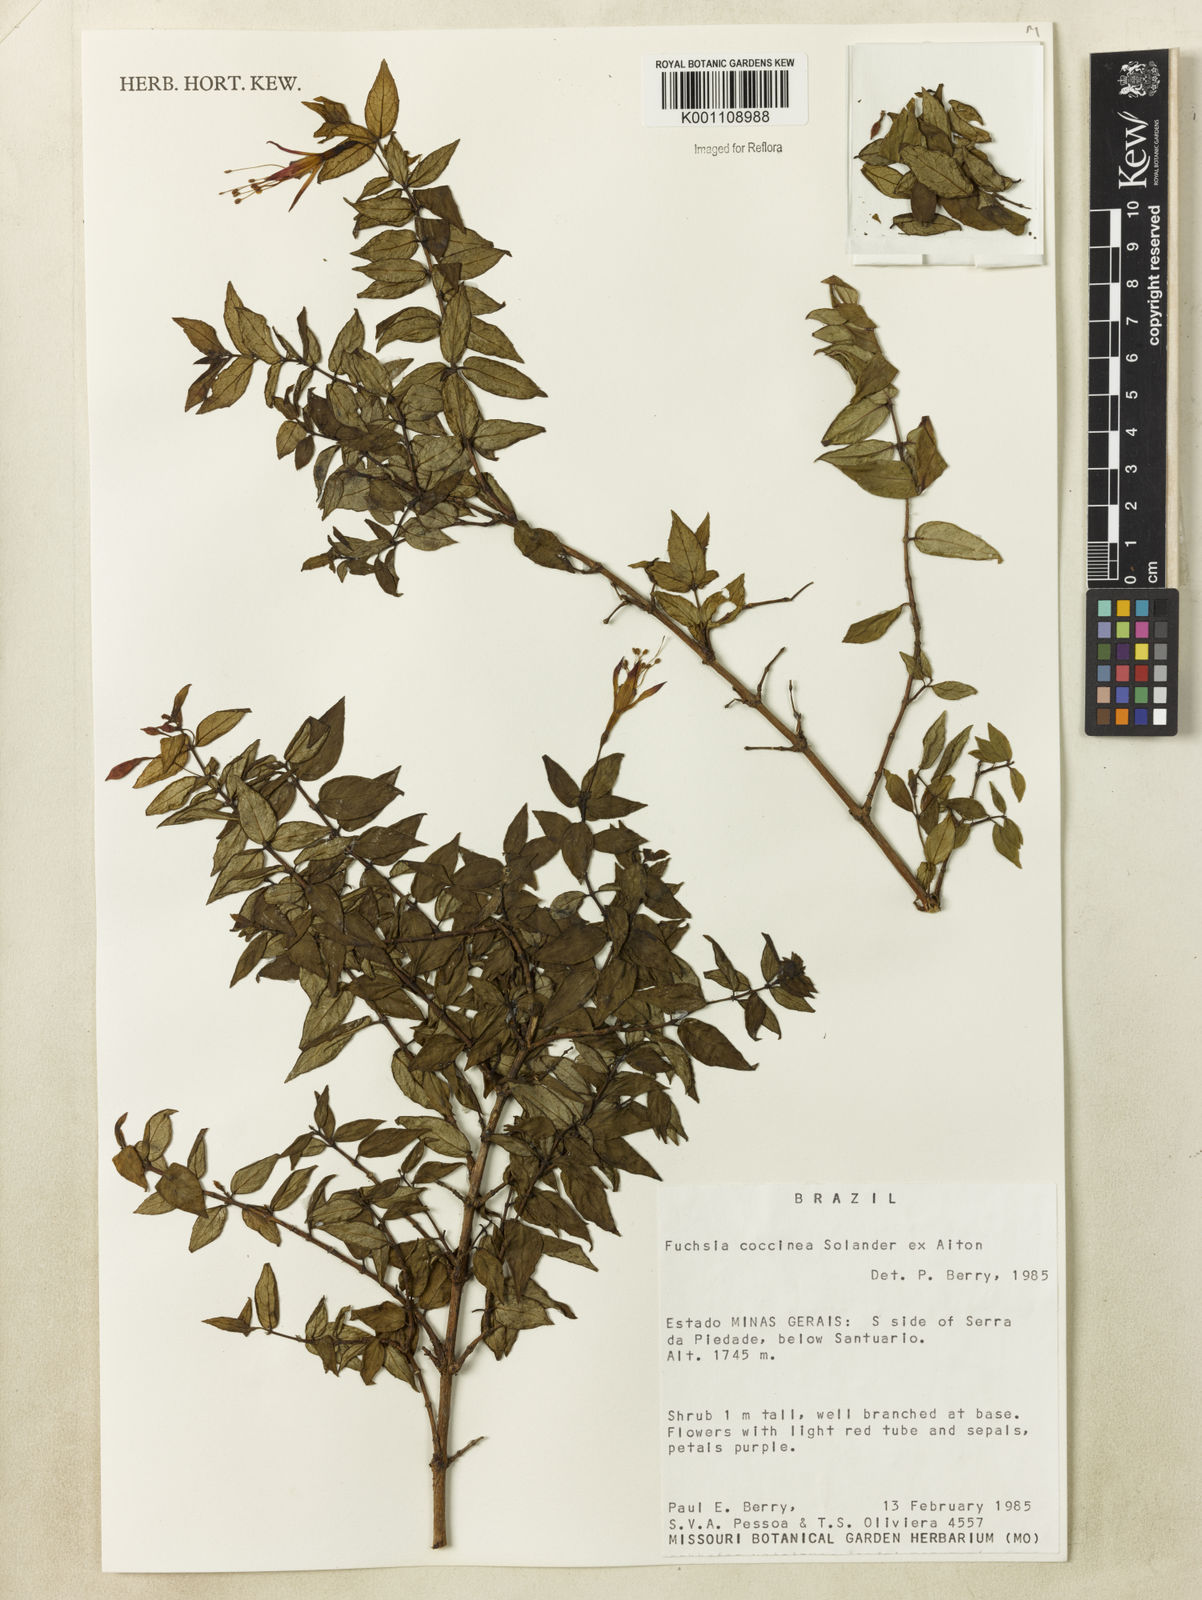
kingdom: Plantae
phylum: Tracheophyta
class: Magnoliopsida
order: Myrtales
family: Onagraceae
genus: Fuchsia
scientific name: Fuchsia
